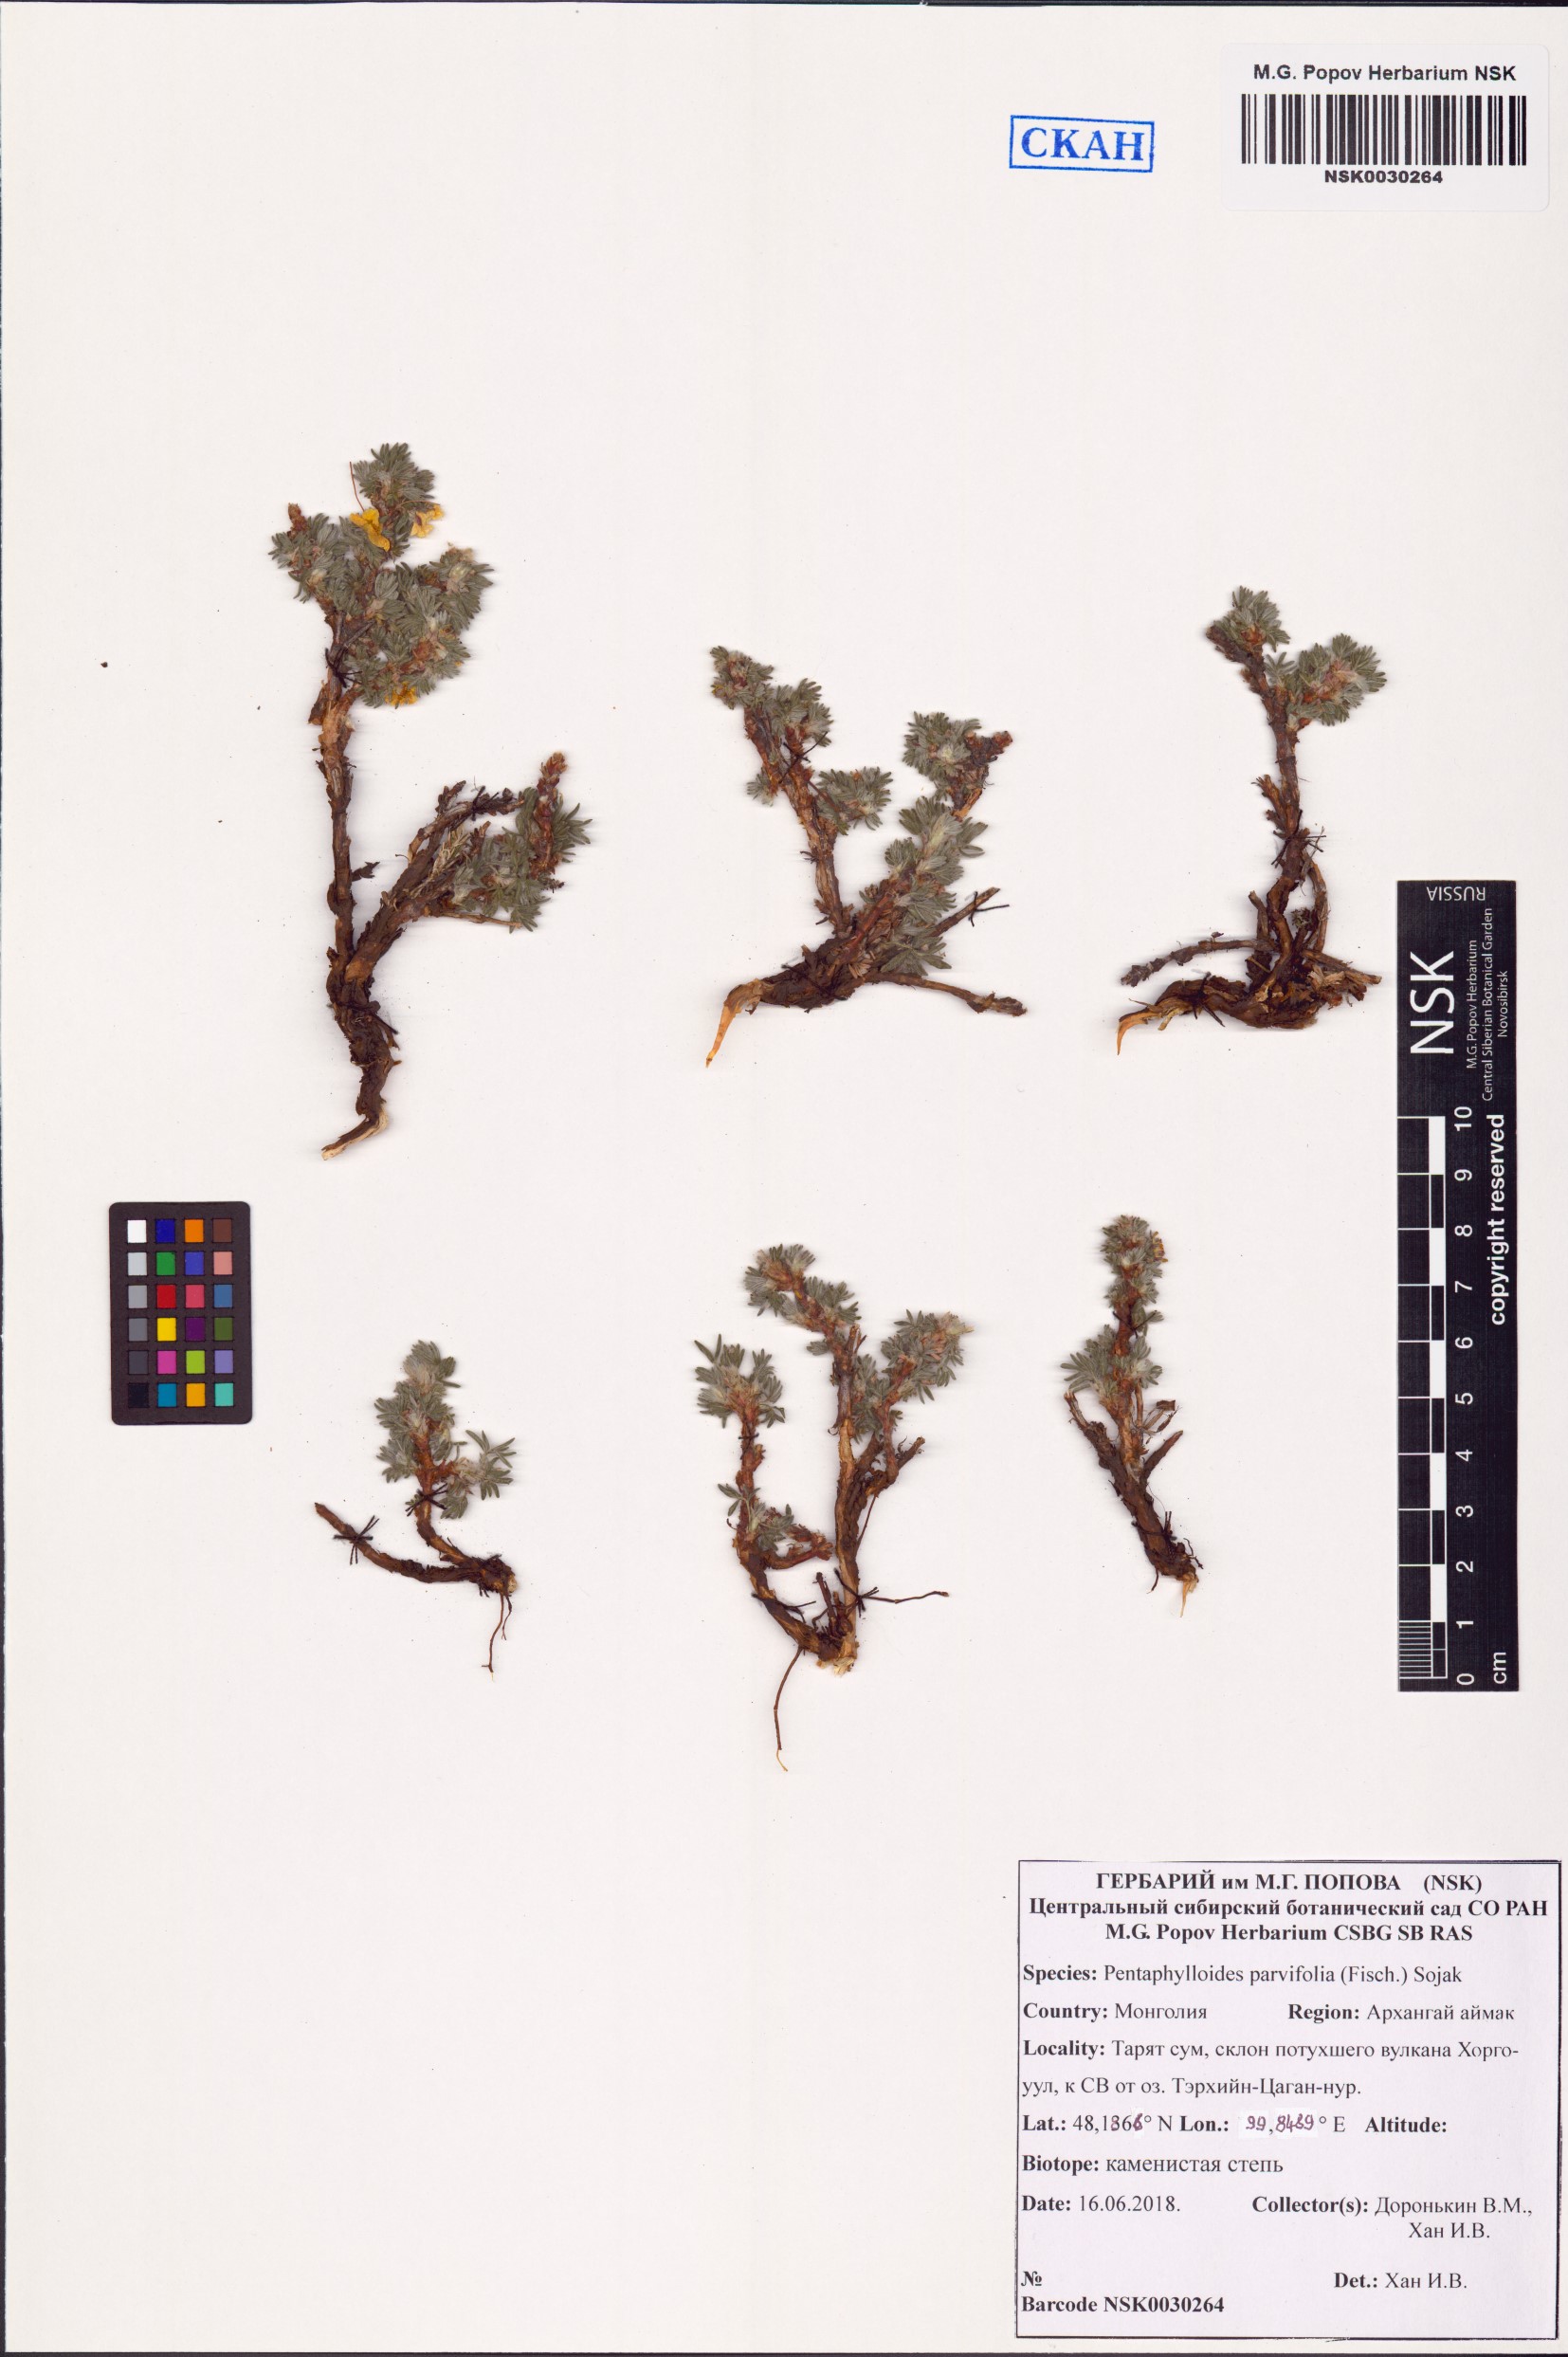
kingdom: Plantae
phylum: Tracheophyta
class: Magnoliopsida
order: Rosales
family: Rosaceae
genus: Dasiphora
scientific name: Dasiphora parvifolia
